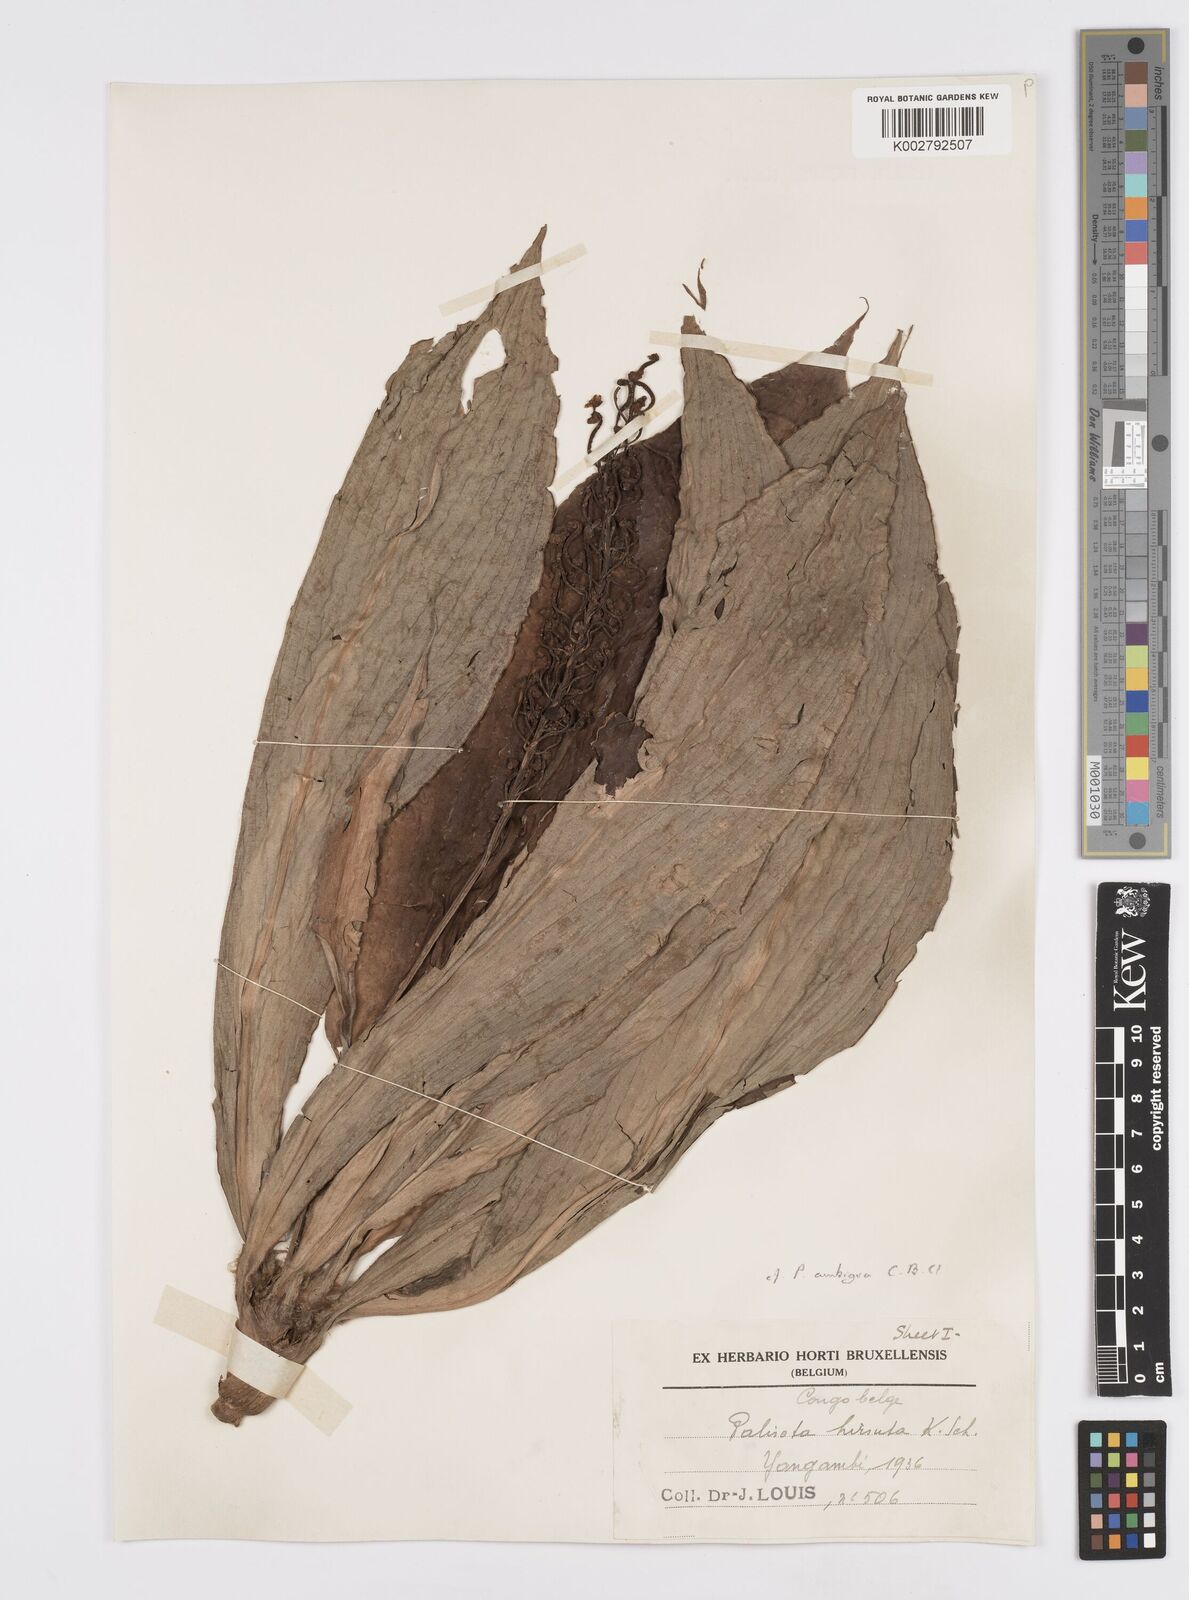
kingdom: Plantae
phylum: Tracheophyta
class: Liliopsida
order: Commelinales
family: Commelinaceae
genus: Palisota
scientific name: Palisota ambigua
